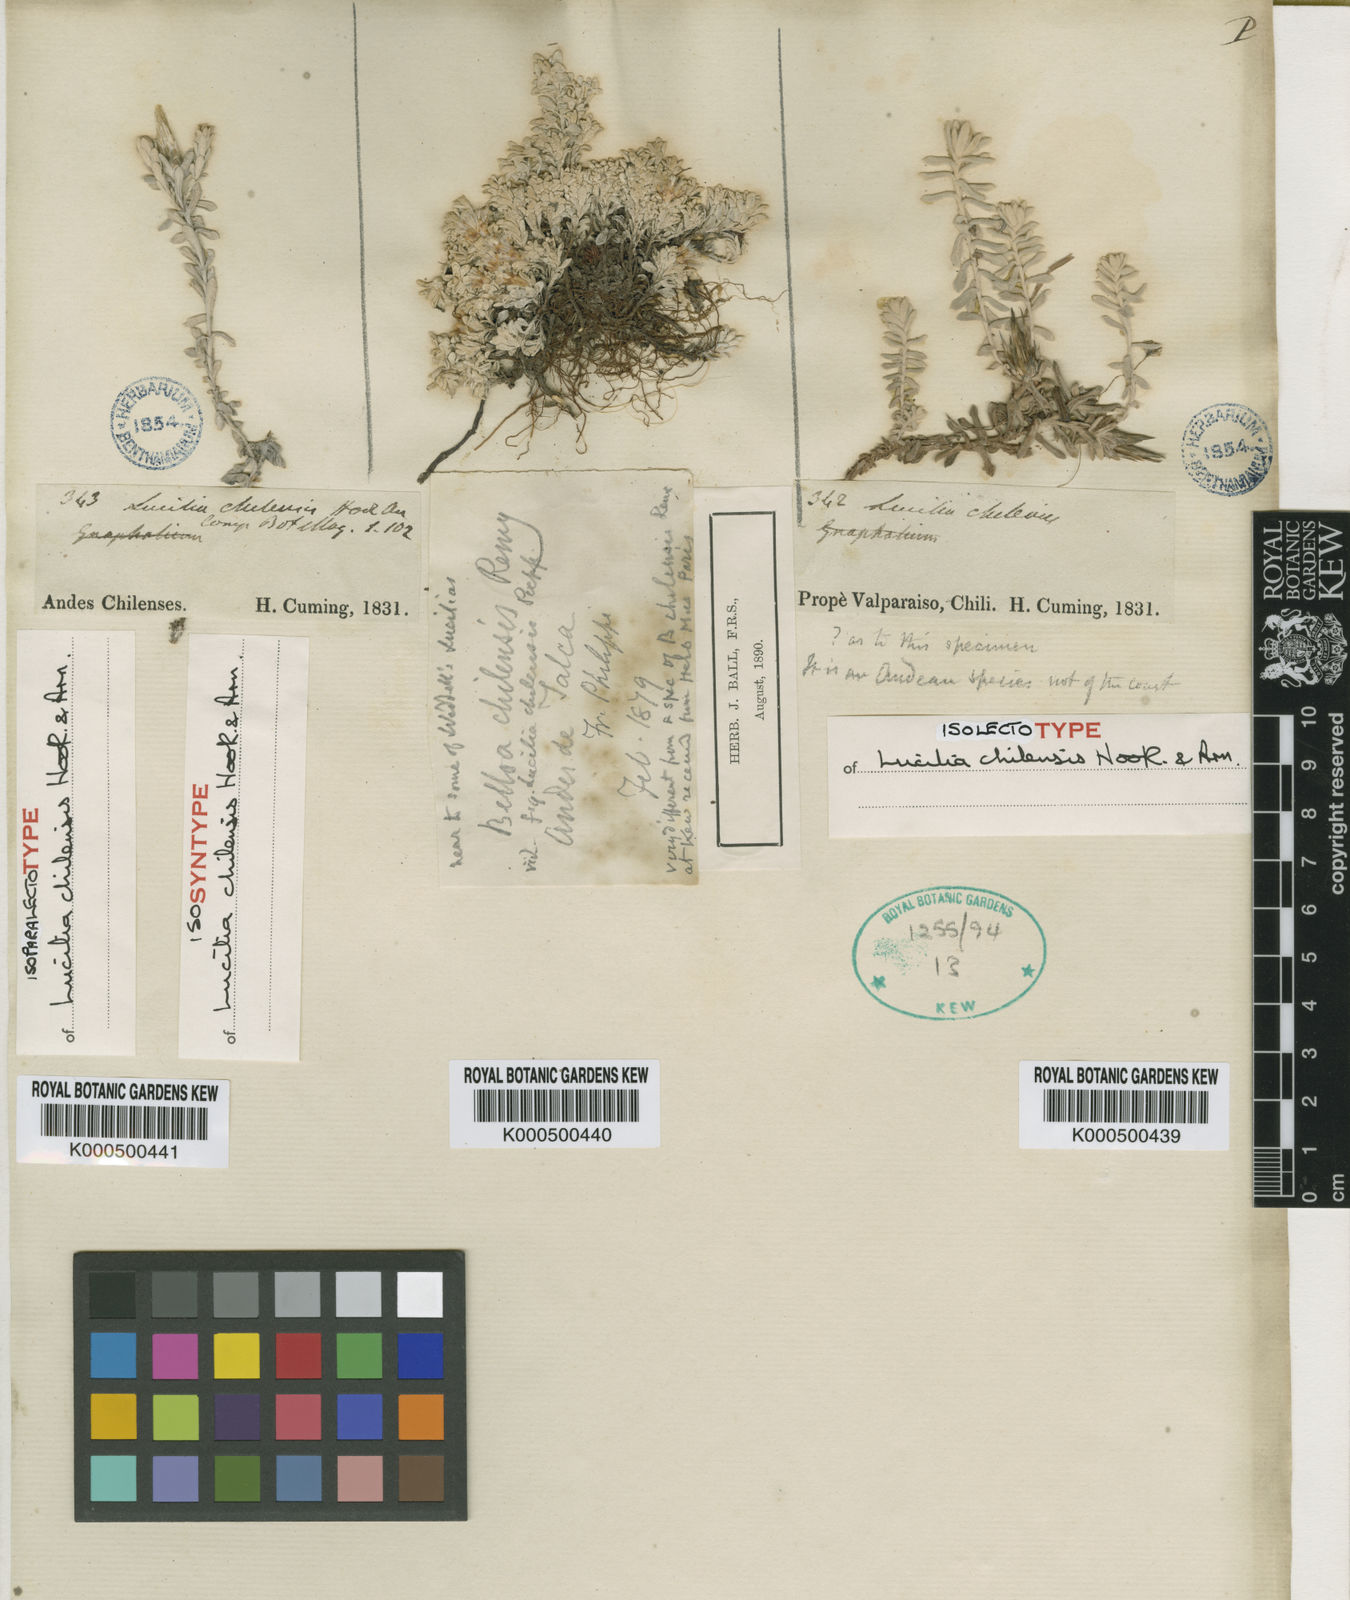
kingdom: Plantae
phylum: Tracheophyta
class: Magnoliopsida
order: Asterales
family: Asteraceae
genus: Belloa
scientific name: Belloa chilensis
